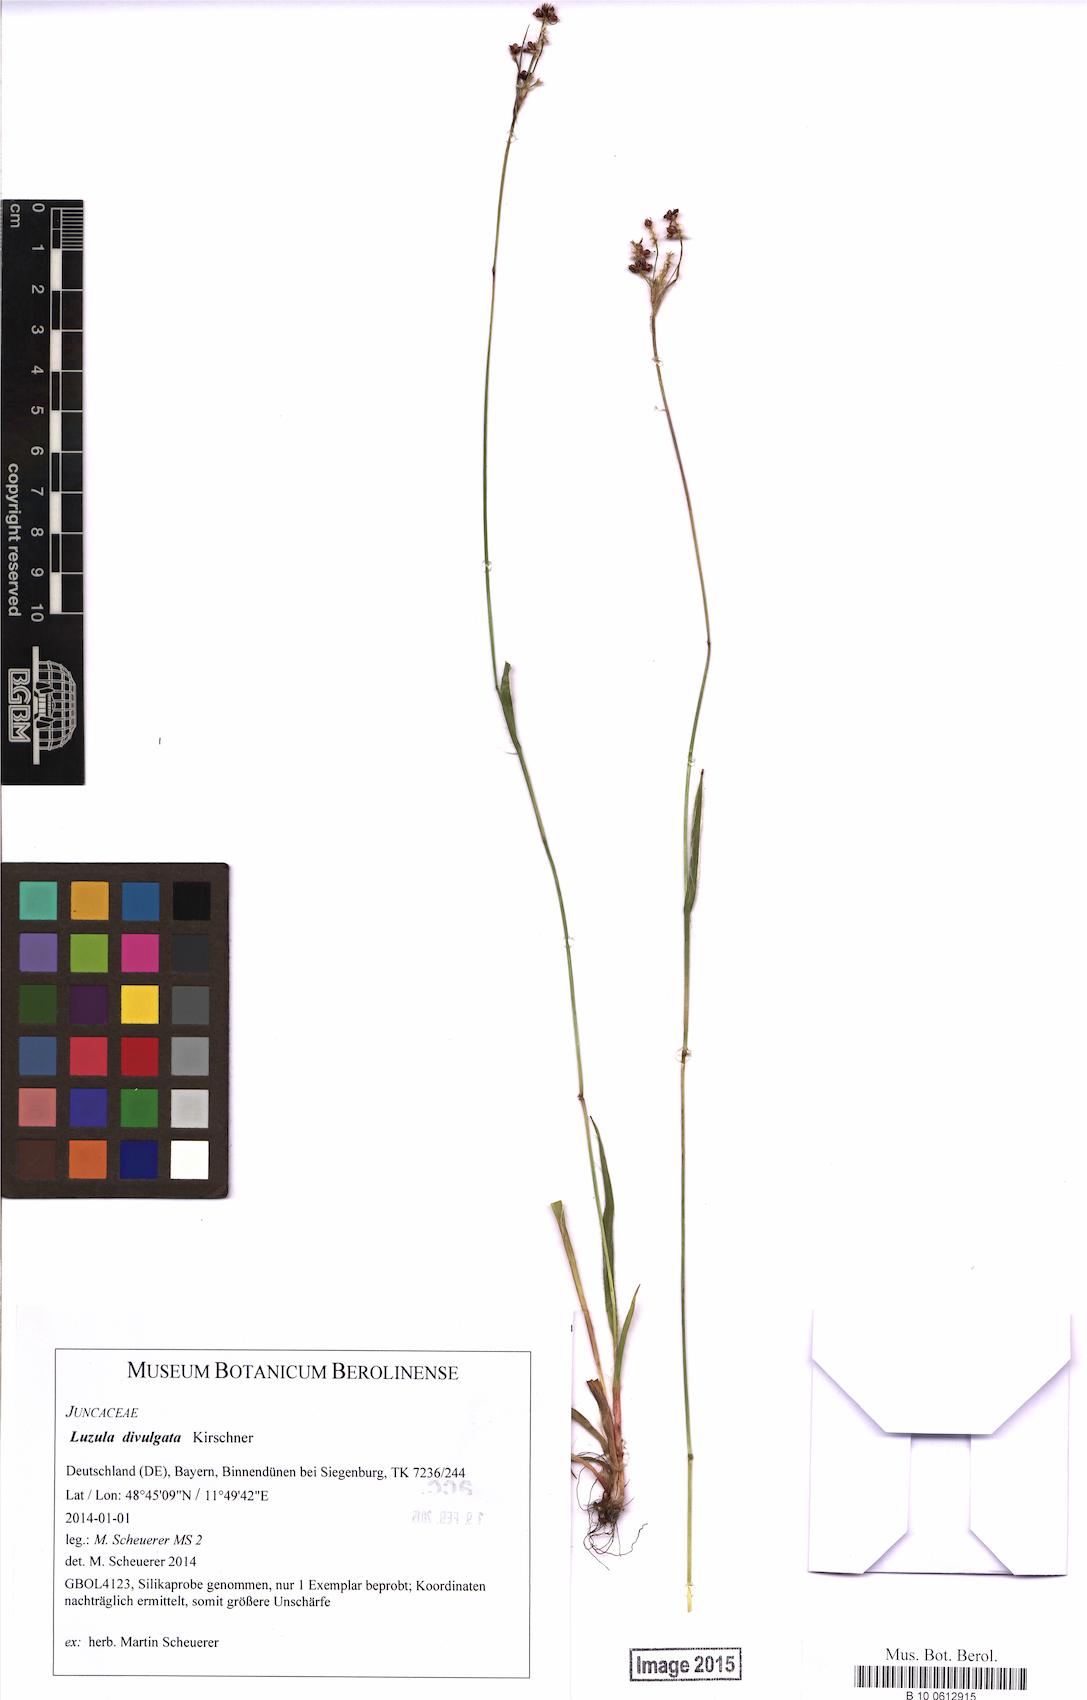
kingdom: Plantae
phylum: Tracheophyta
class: Liliopsida
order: Poales
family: Juncaceae
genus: Luzula
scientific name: Luzula divulgata
